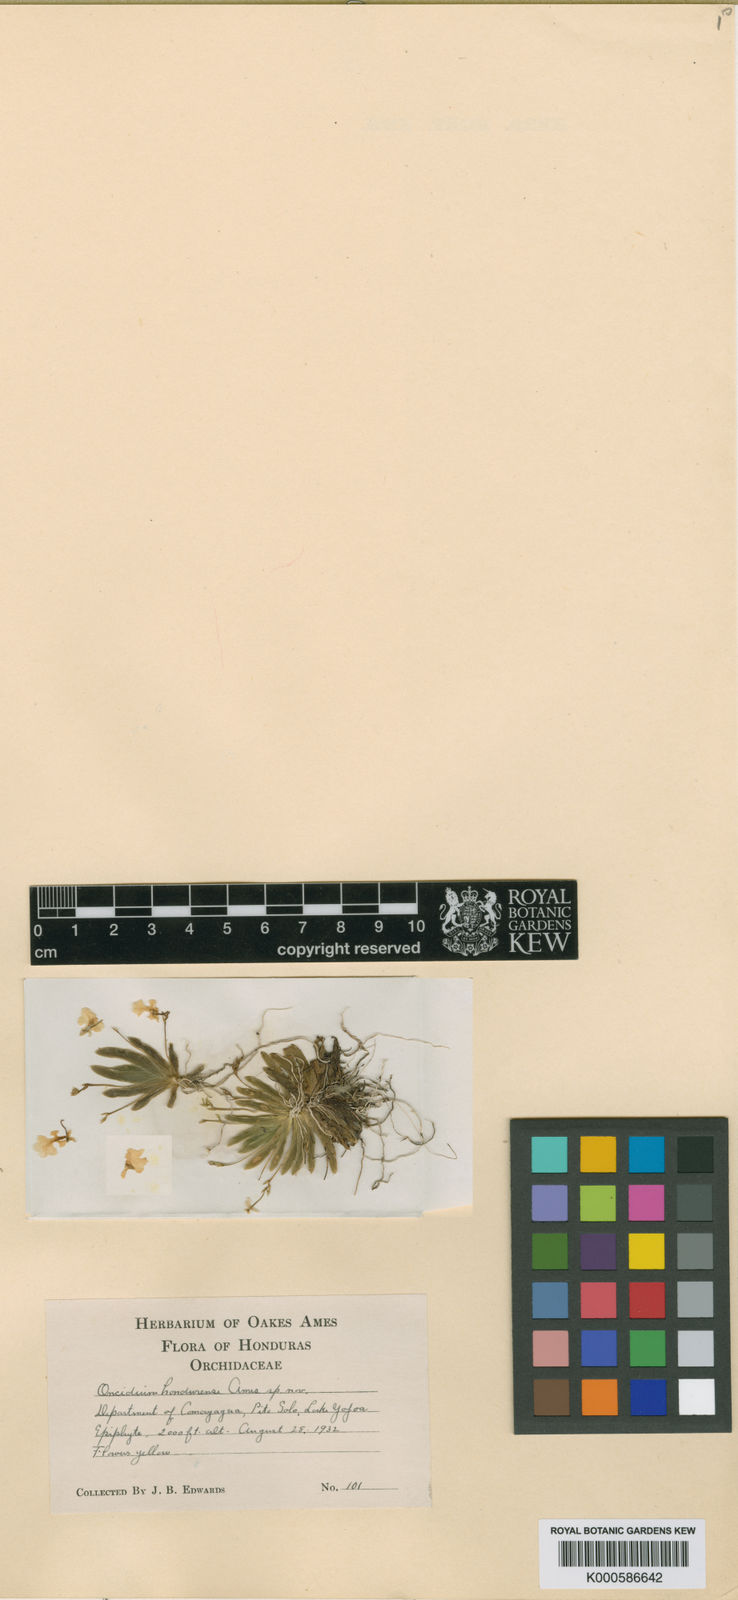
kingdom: Plantae
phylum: Tracheophyta
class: Liliopsida
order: Asparagales
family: Orchidaceae
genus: Erycina
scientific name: Erycina pumilio
